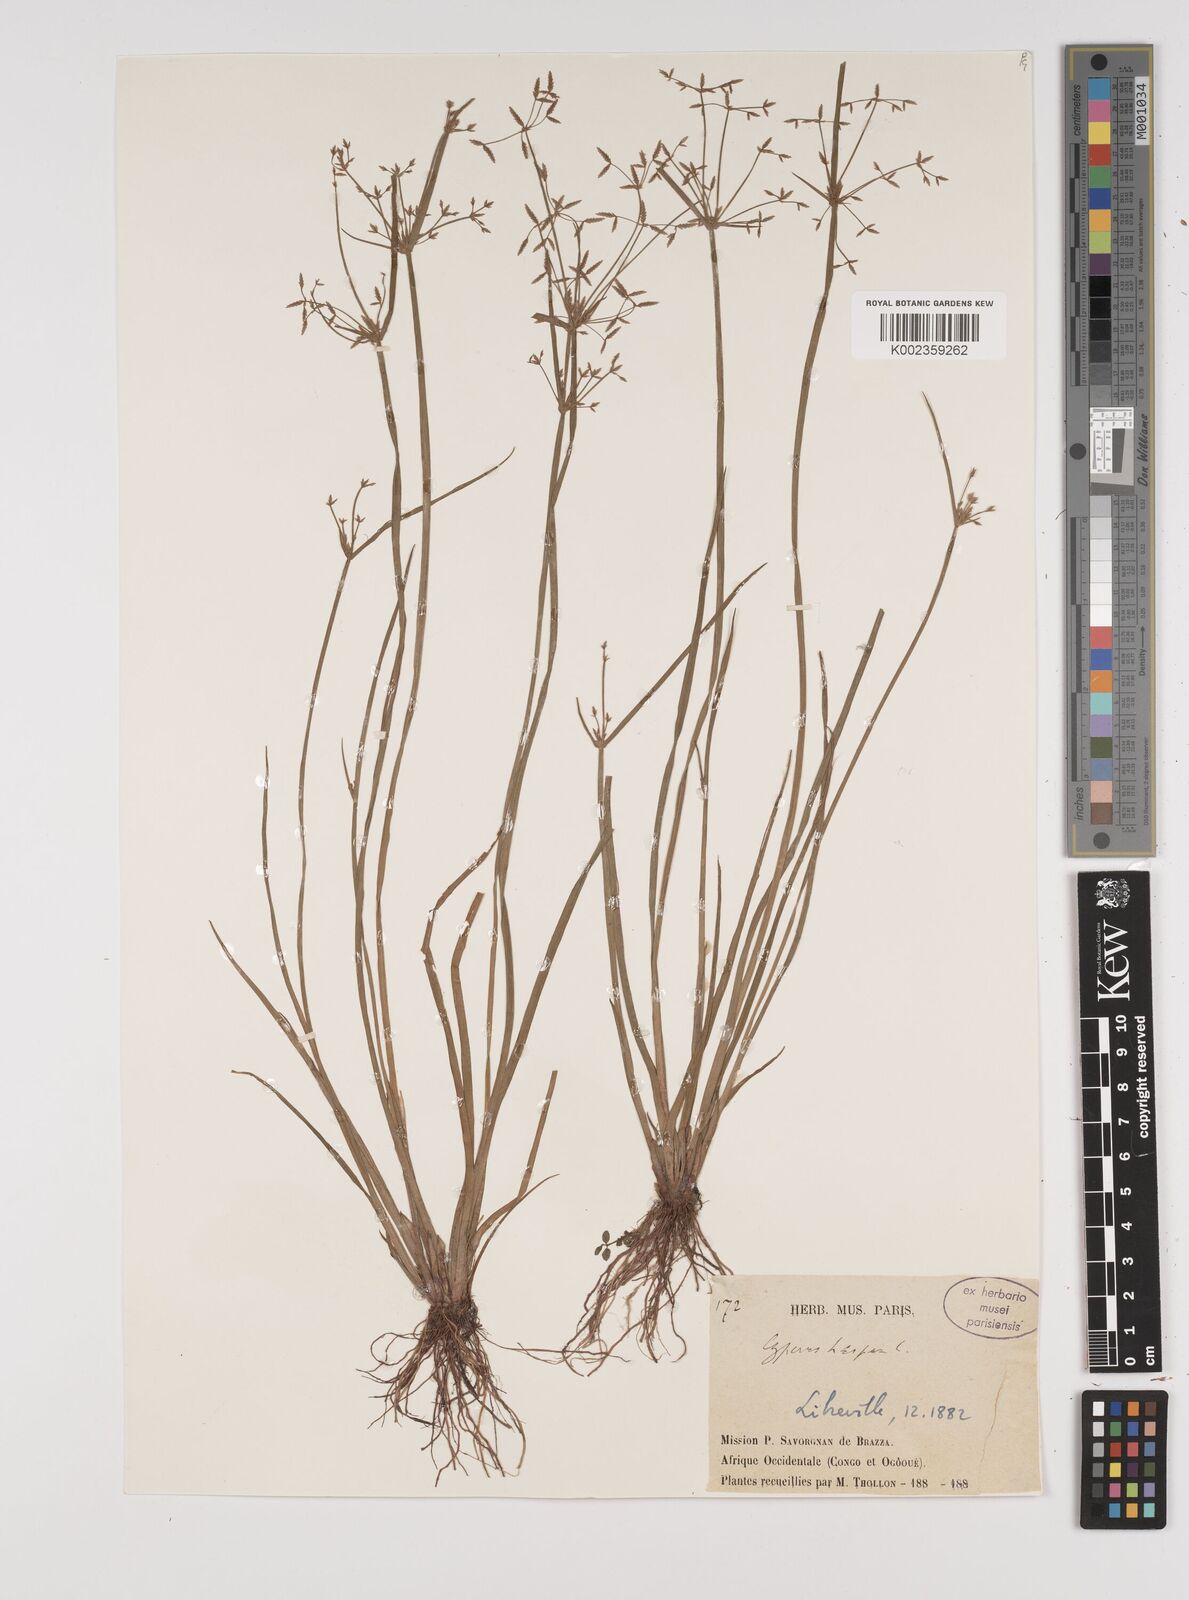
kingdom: Plantae
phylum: Tracheophyta
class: Liliopsida
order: Poales
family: Cyperaceae
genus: Cyperus
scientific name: Cyperus haspan
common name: Haspan flatsedge
